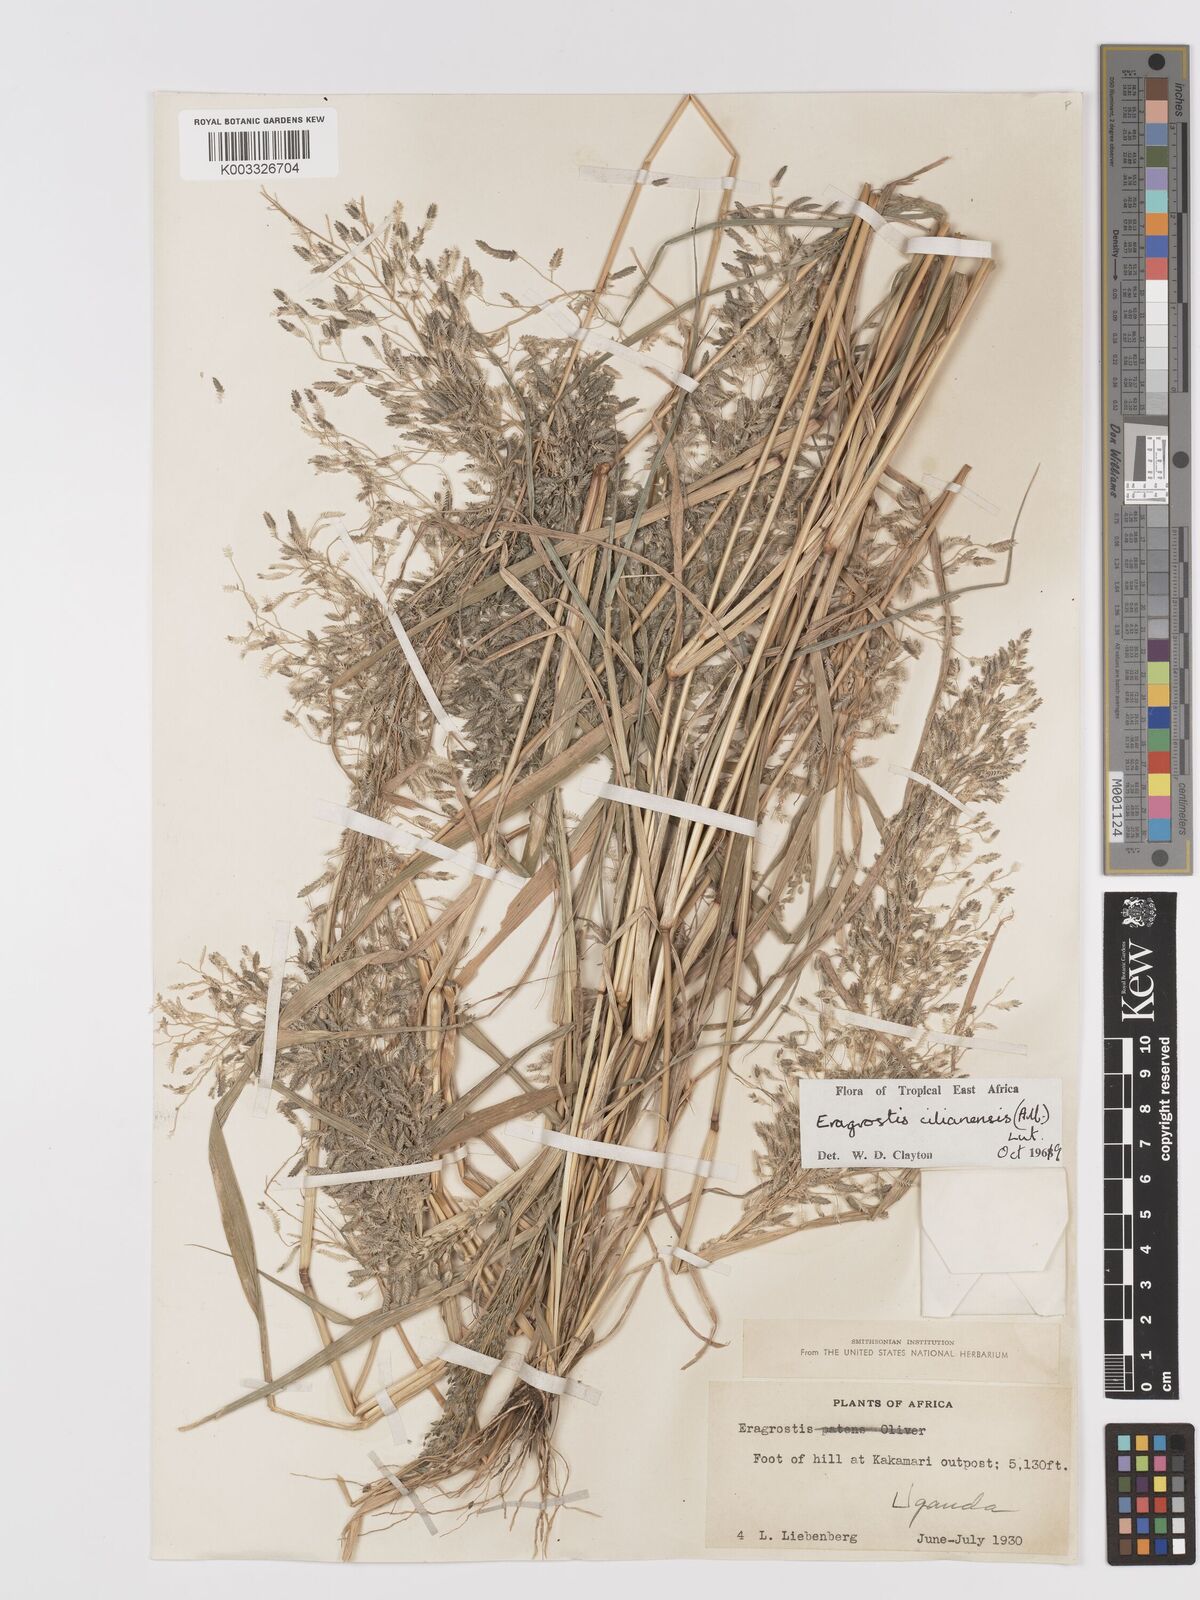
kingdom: Plantae
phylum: Tracheophyta
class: Liliopsida
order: Poales
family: Poaceae
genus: Eragrostis
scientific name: Eragrostis cilianensis
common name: Stinkgrass
